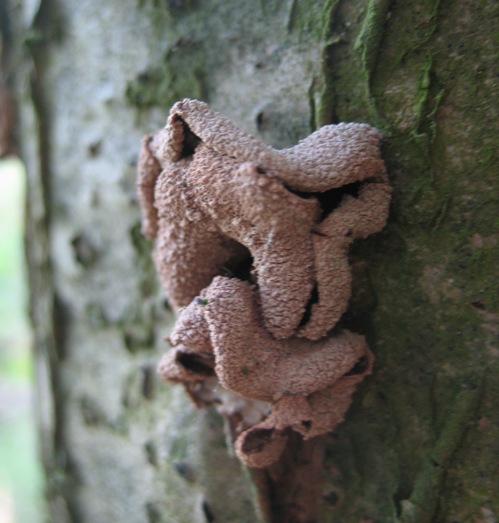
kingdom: Fungi
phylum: Ascomycota
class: Leotiomycetes
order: Helotiales
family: Cenangiaceae
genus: Encoelia
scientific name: Encoelia furfuracea
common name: hassel-læderskive
